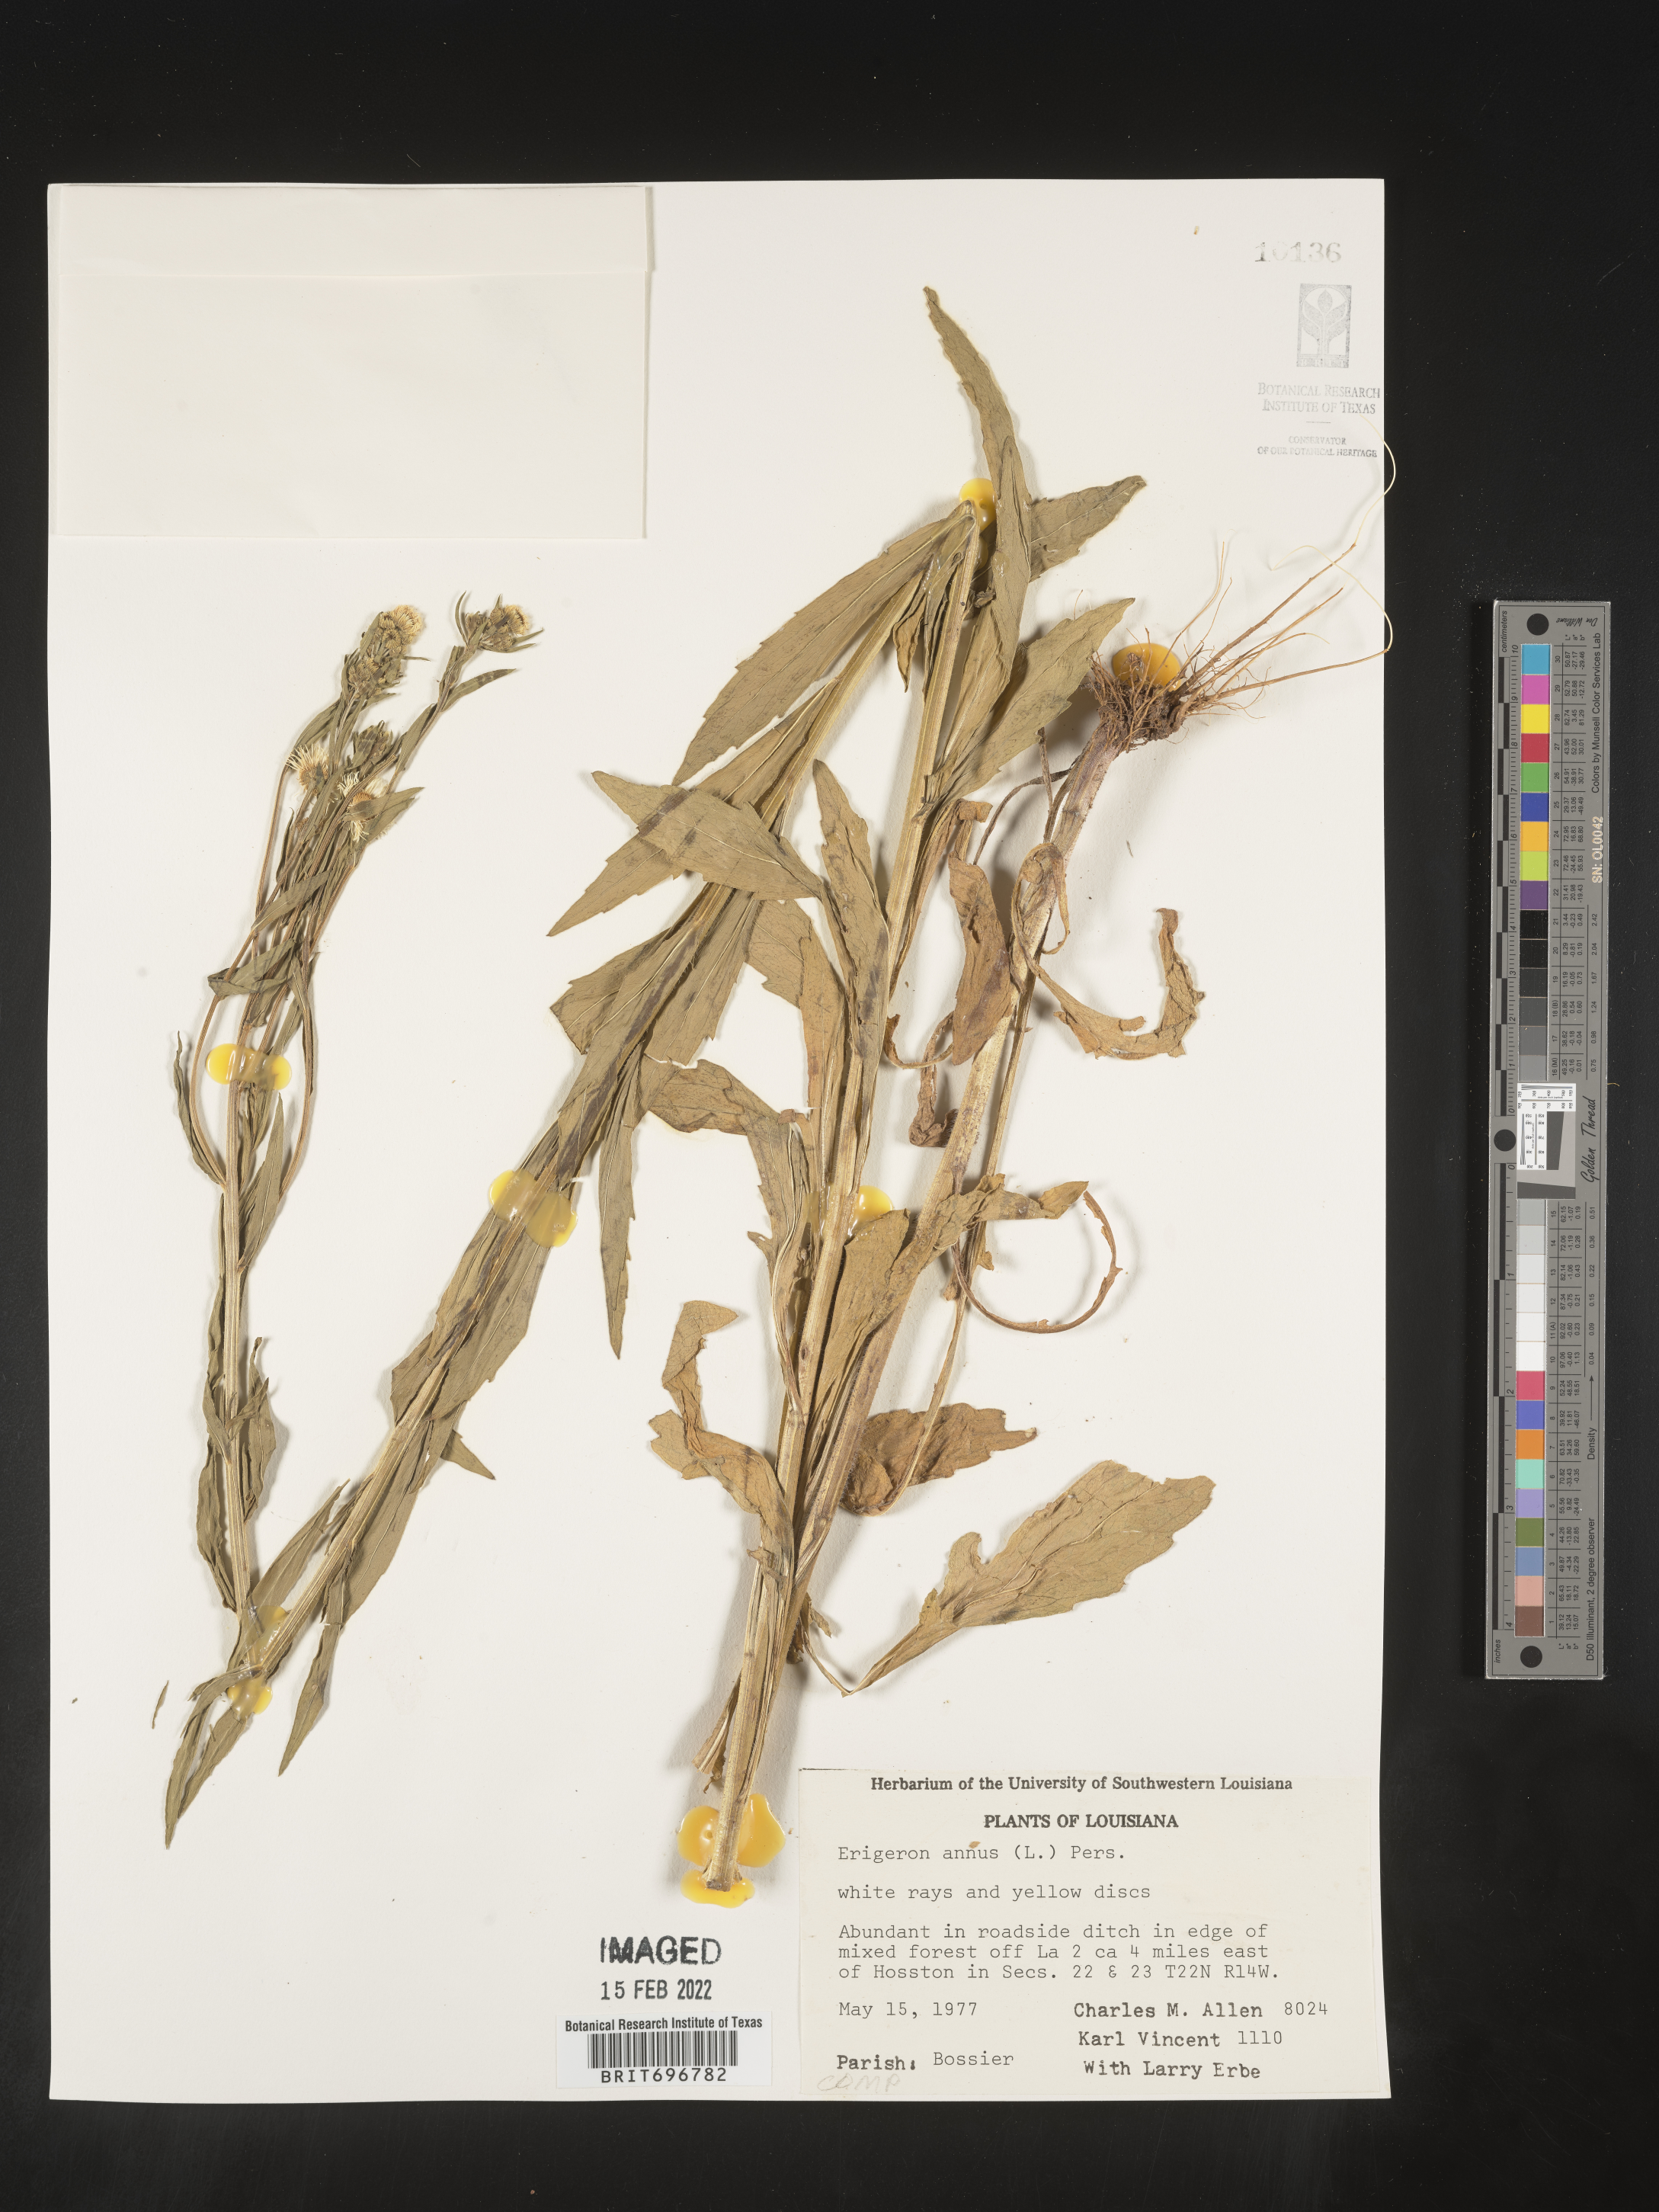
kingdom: Plantae
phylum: Tracheophyta
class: Magnoliopsida
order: Asterales
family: Asteraceae
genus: Erigeron
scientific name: Erigeron annuus
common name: Tall fleabane
